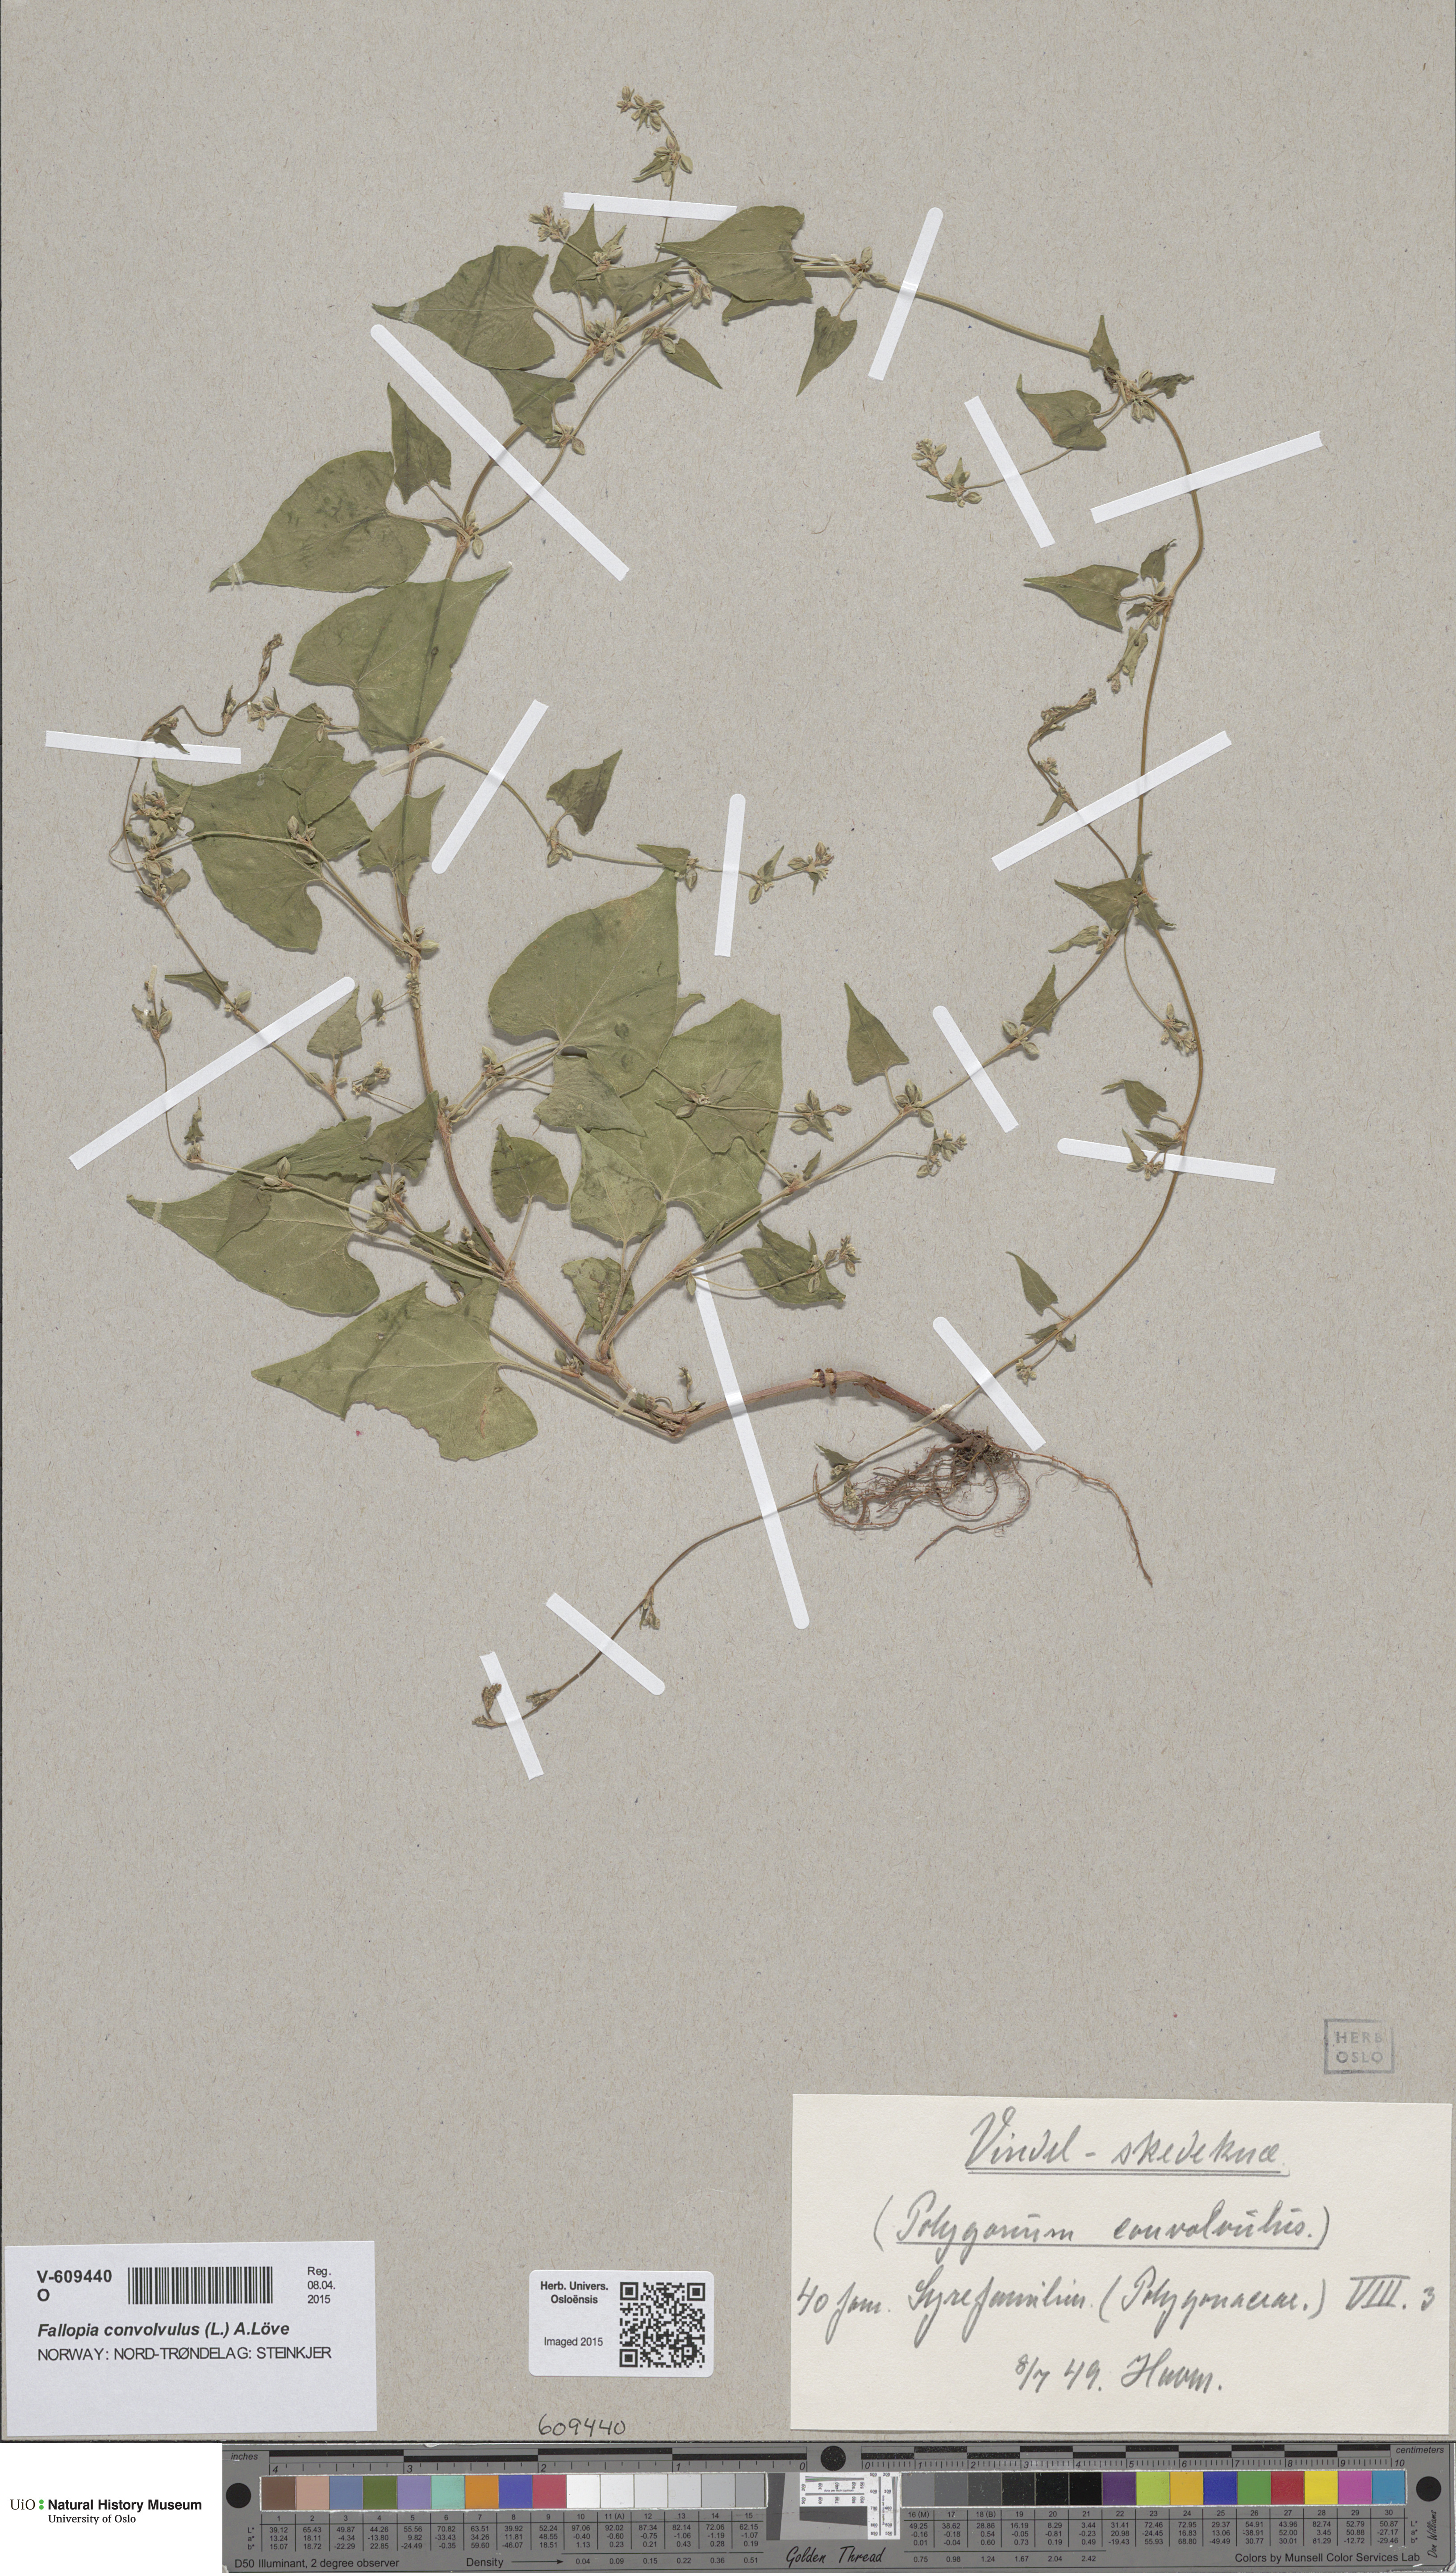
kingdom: Plantae
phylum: Tracheophyta
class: Magnoliopsida
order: Caryophyllales
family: Polygonaceae
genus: Fallopia
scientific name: Fallopia convolvulus
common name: Black bindweed
